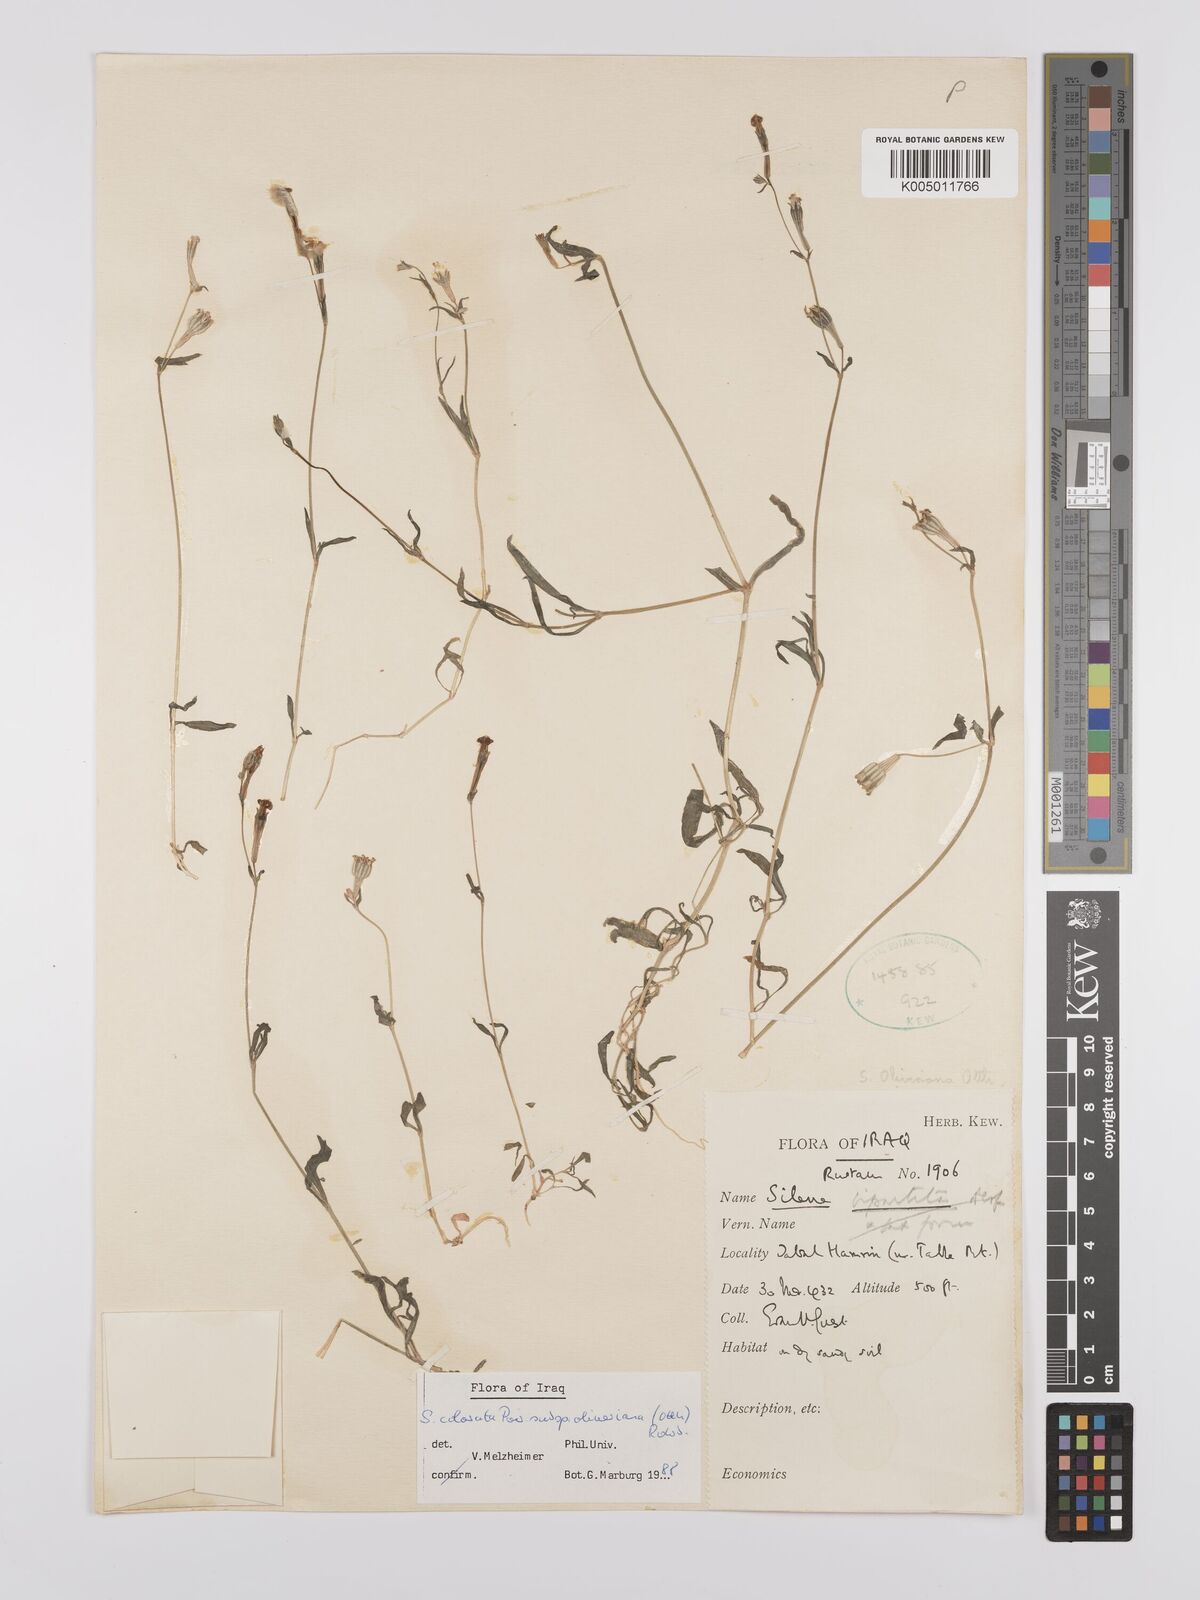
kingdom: Plantae
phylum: Tracheophyta
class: Magnoliopsida
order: Caryophyllales
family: Caryophyllaceae
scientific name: Caryophyllaceae
